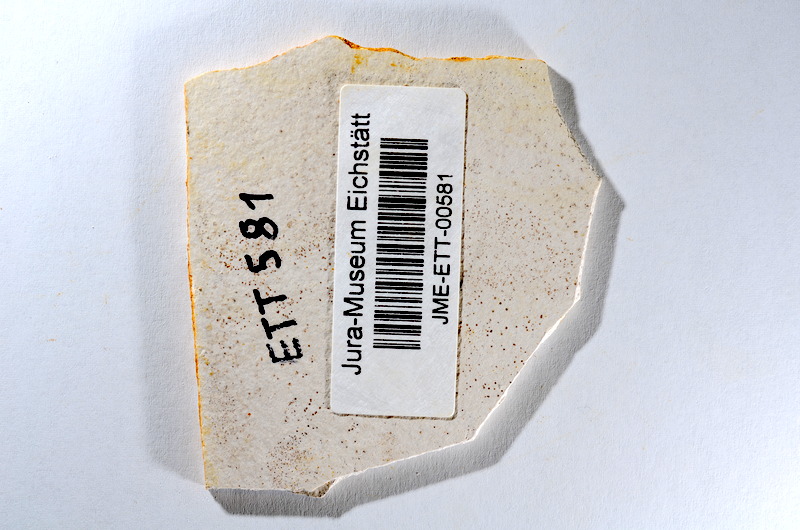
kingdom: Animalia
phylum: Chordata
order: Salmoniformes
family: Orthogonikleithridae
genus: Orthogonikleithrus
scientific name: Orthogonikleithrus hoelli
